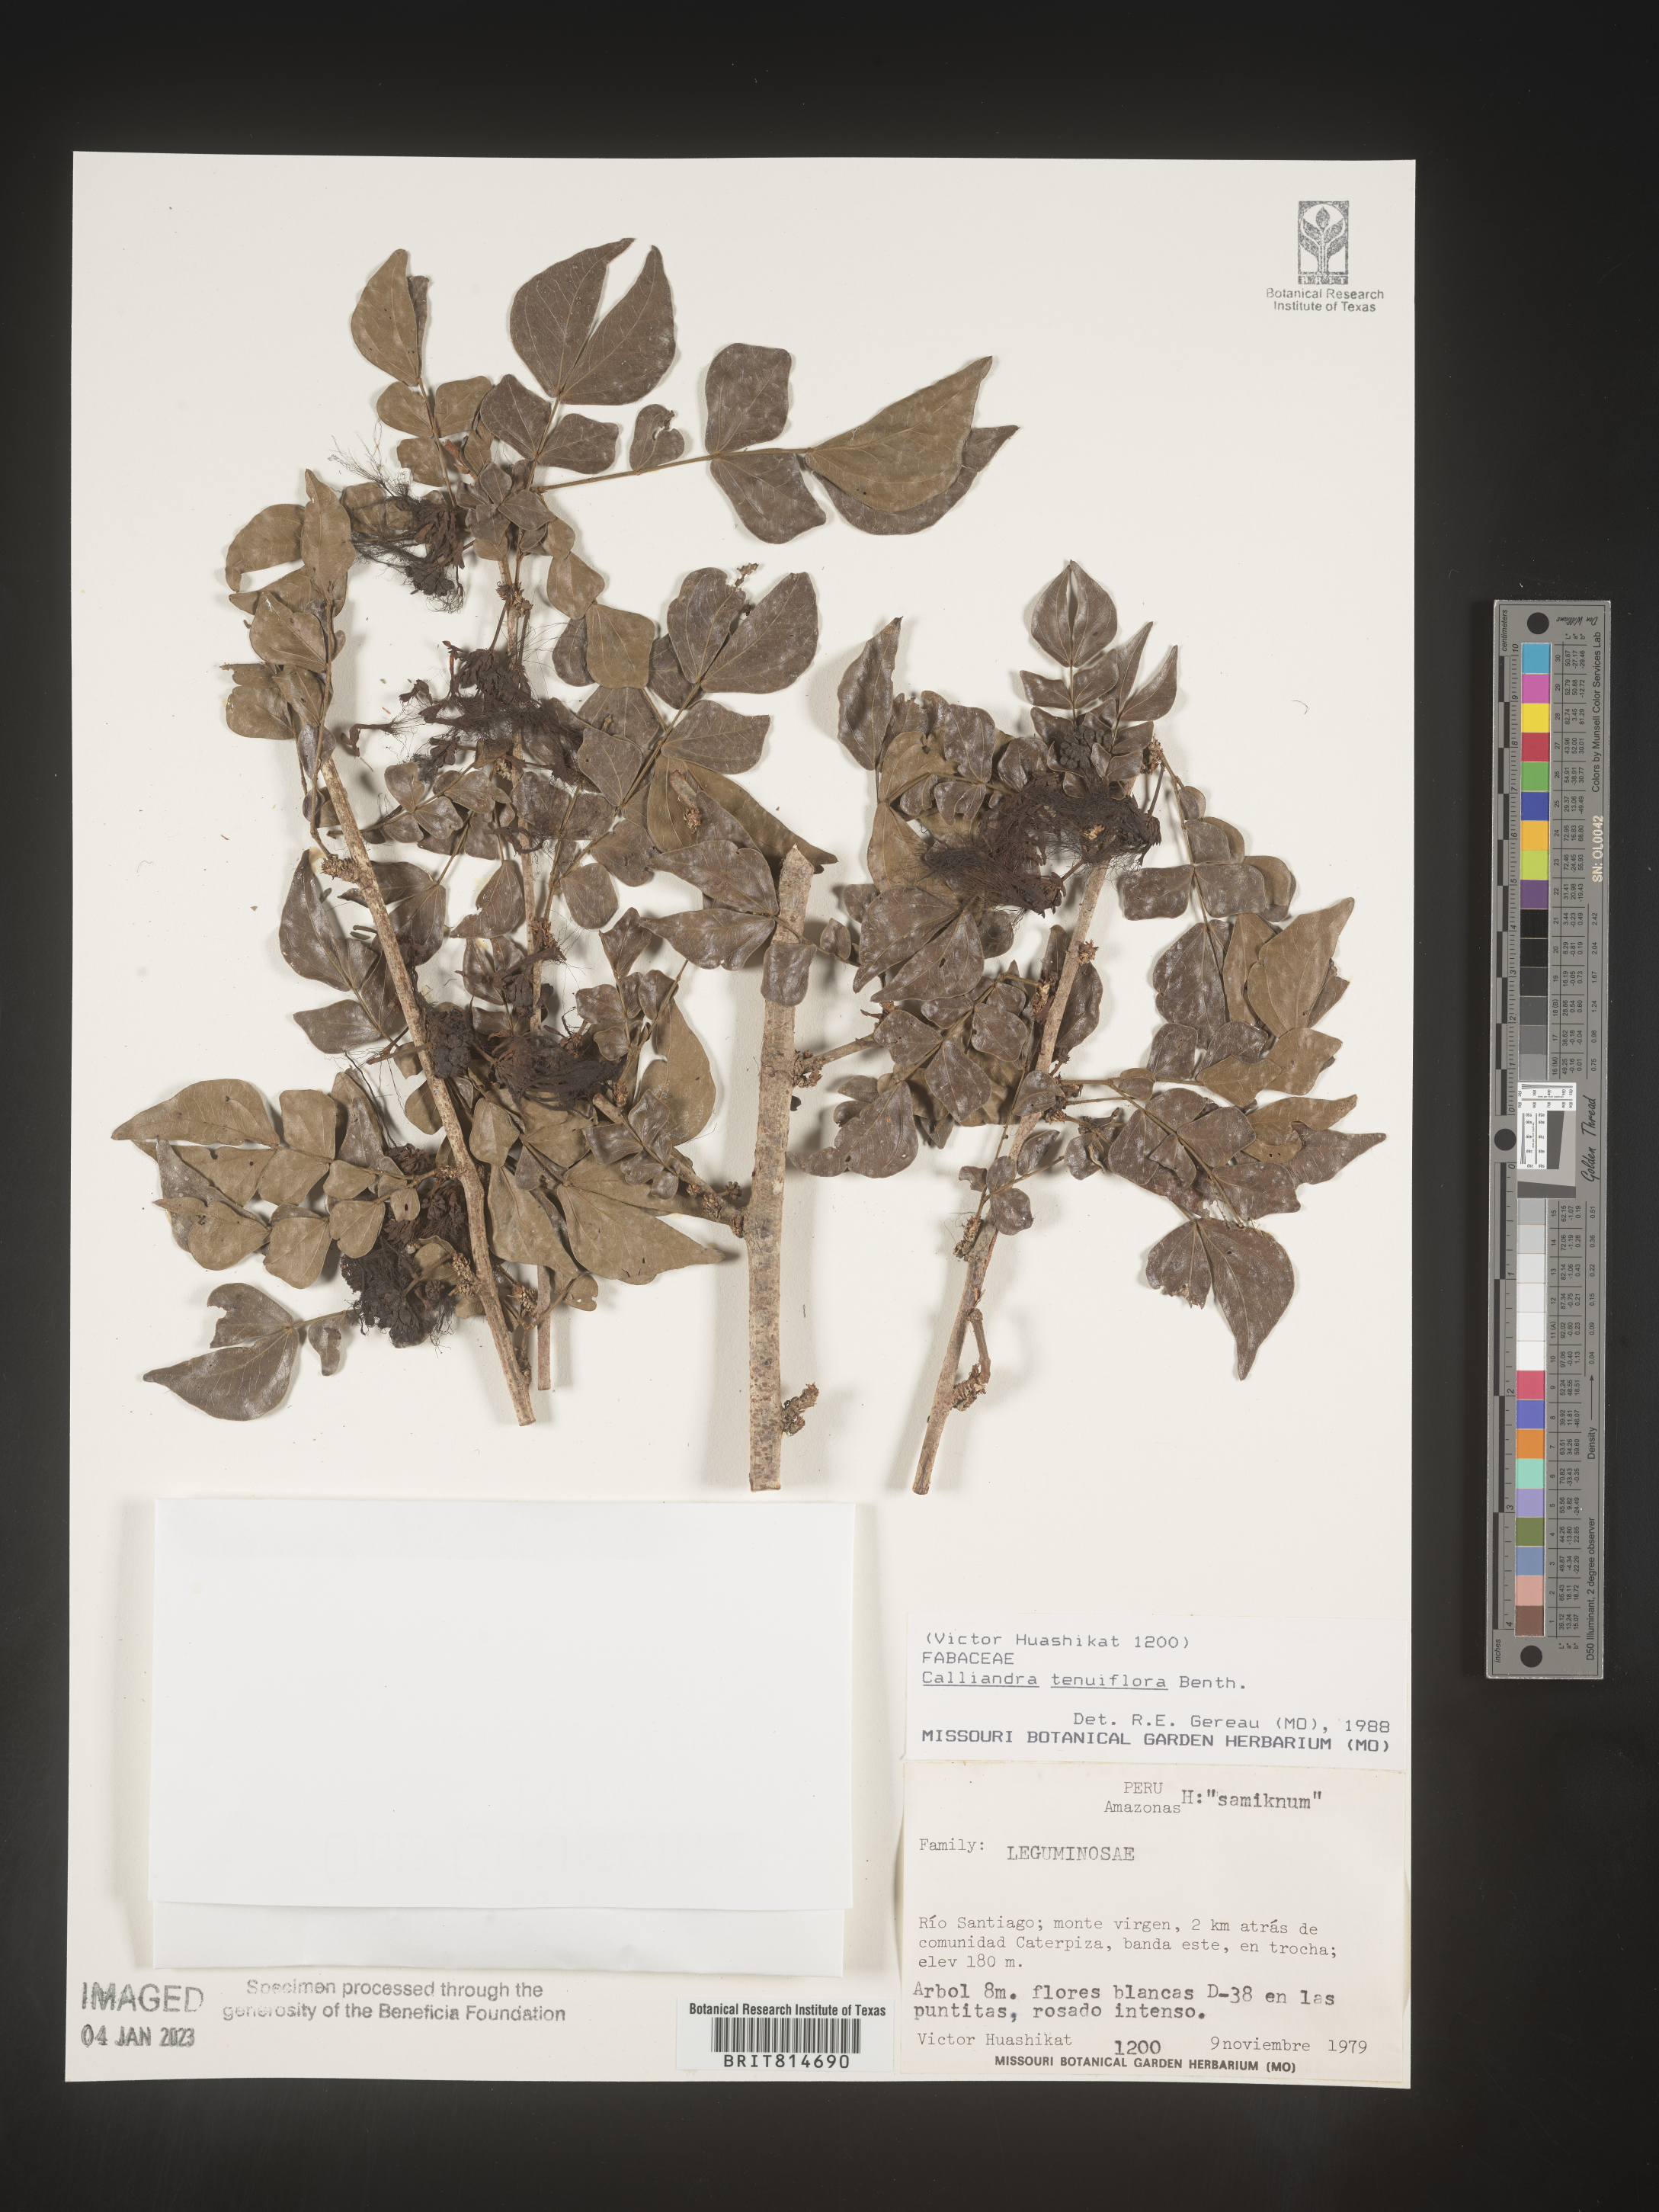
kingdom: Plantae
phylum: Tracheophyta
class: Magnoliopsida
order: Fabales
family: Fabaceae
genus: Calliandra
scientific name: Calliandra
